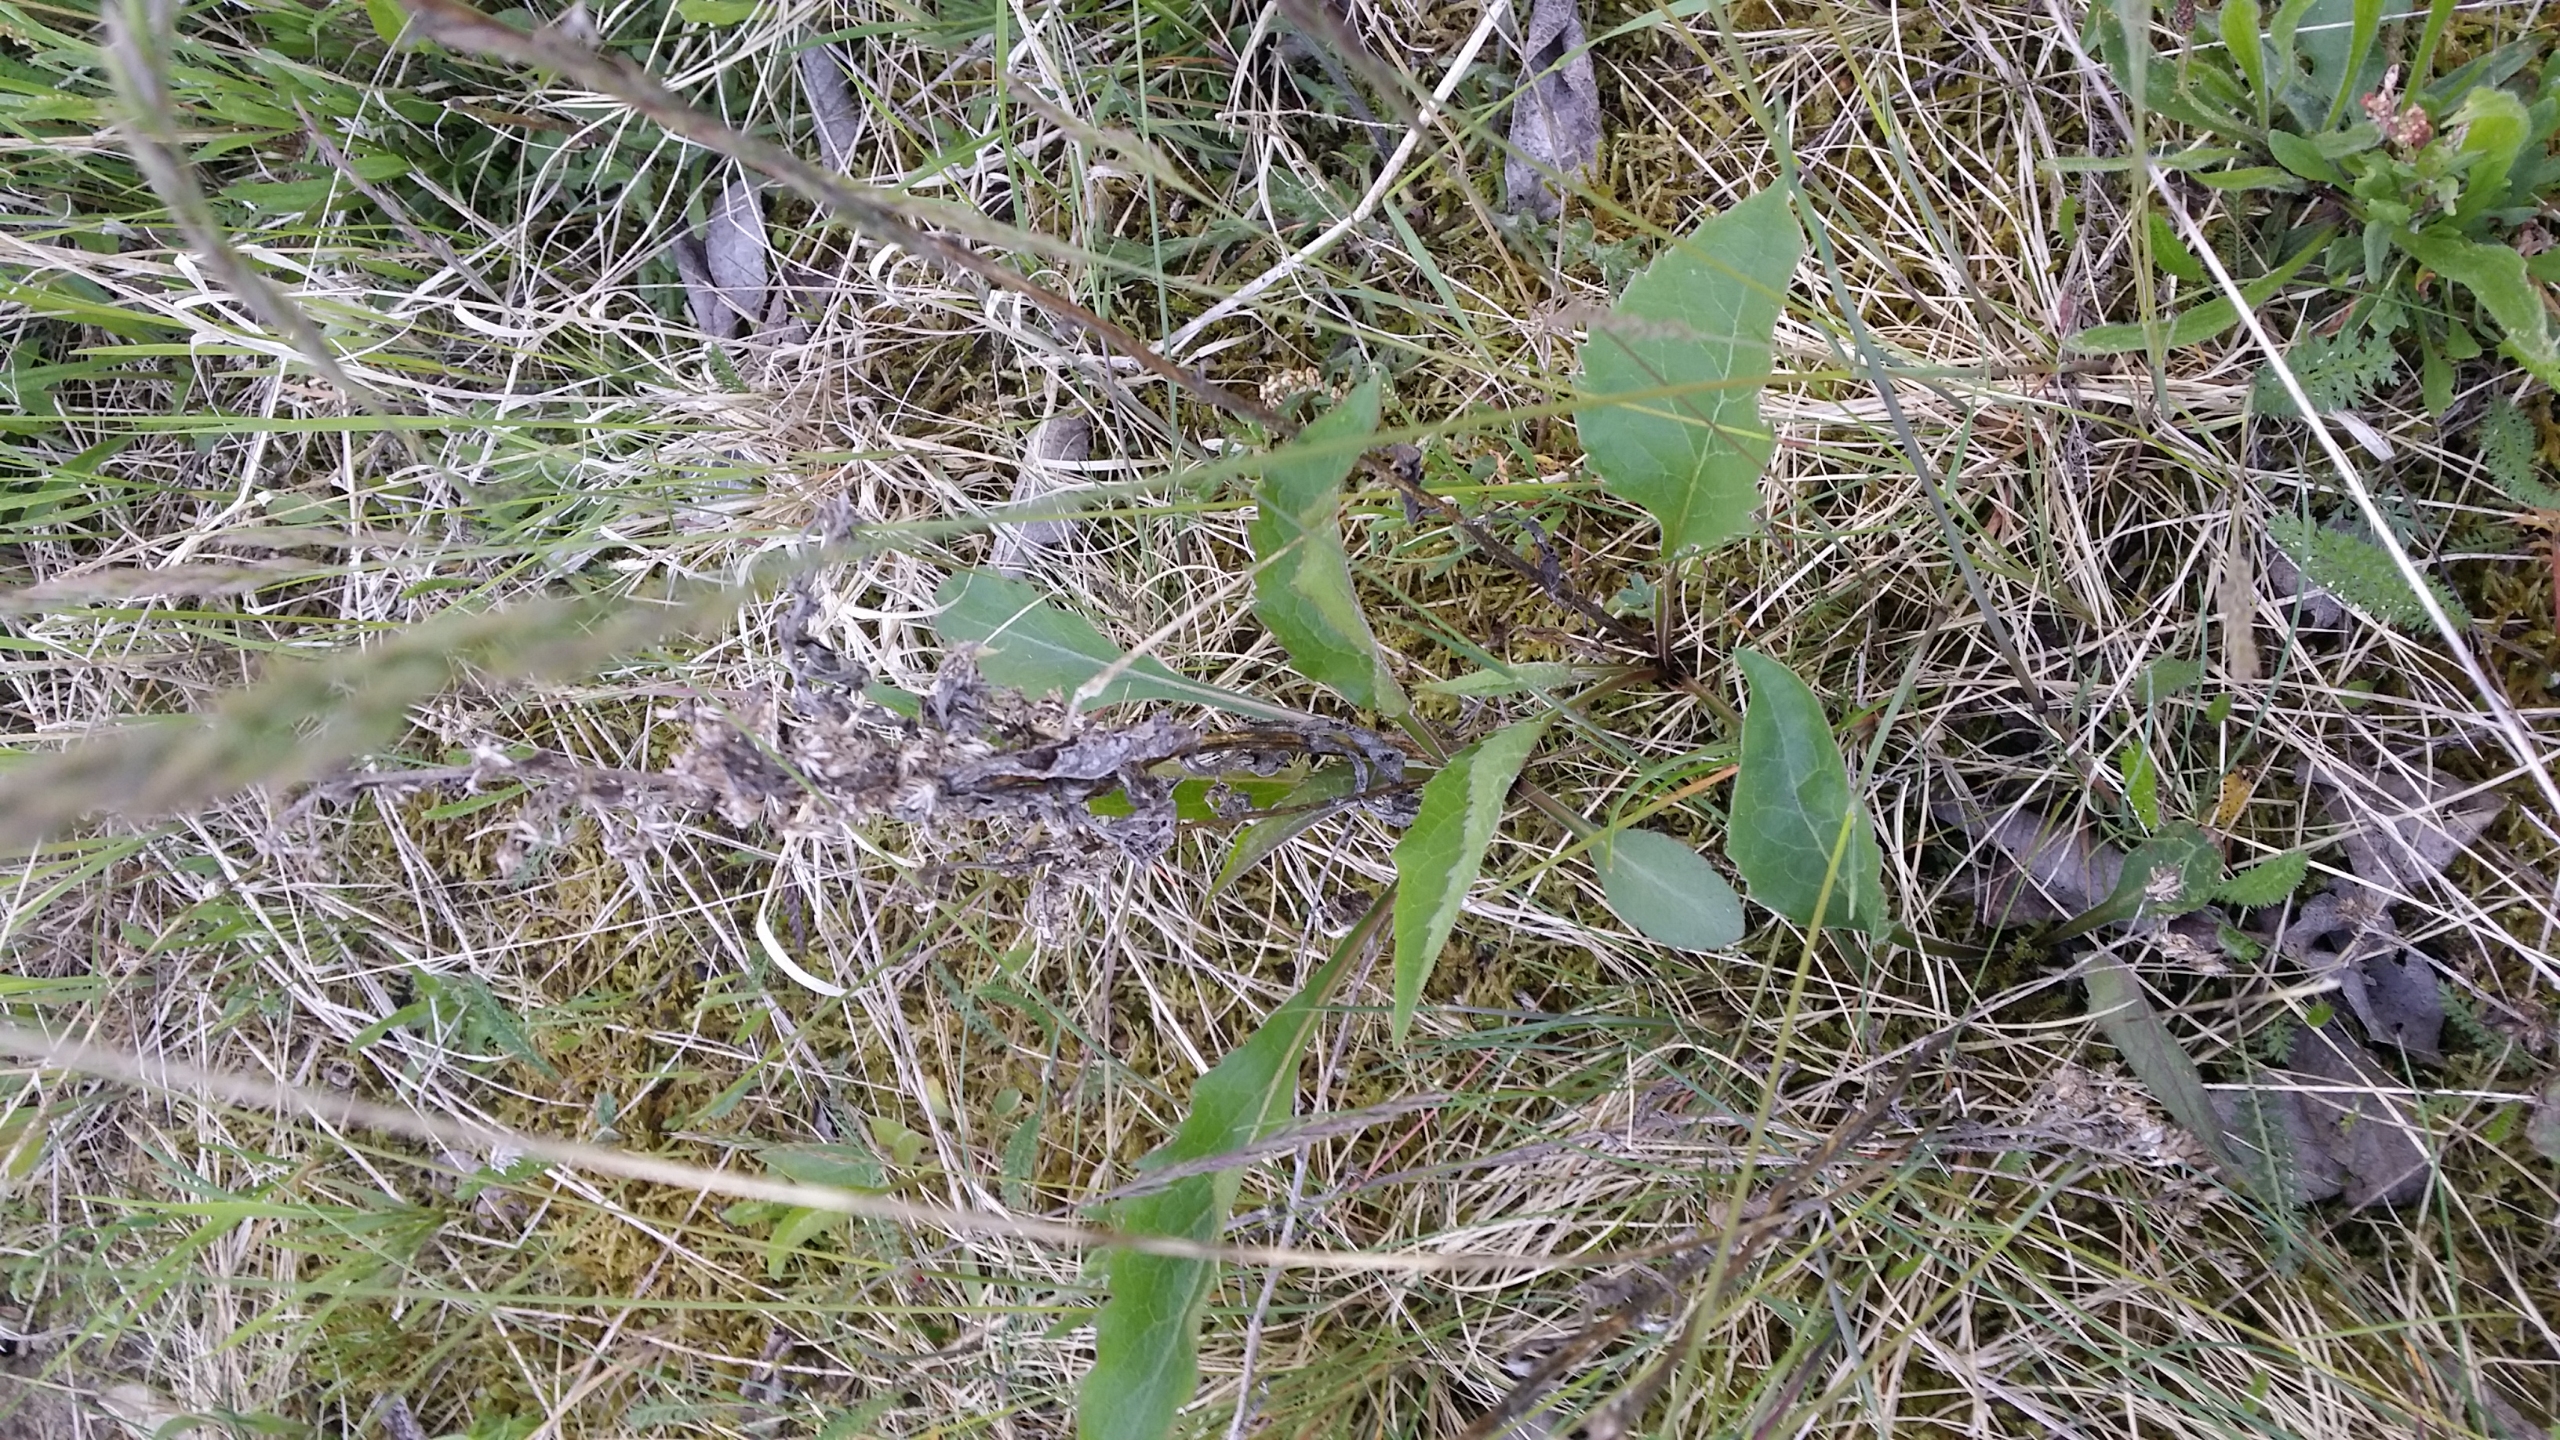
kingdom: Plantae
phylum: Tracheophyta
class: Magnoliopsida
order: Asterales
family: Asteraceae
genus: Solidago
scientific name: Solidago virgaurea
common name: Almindelig gyldenris
